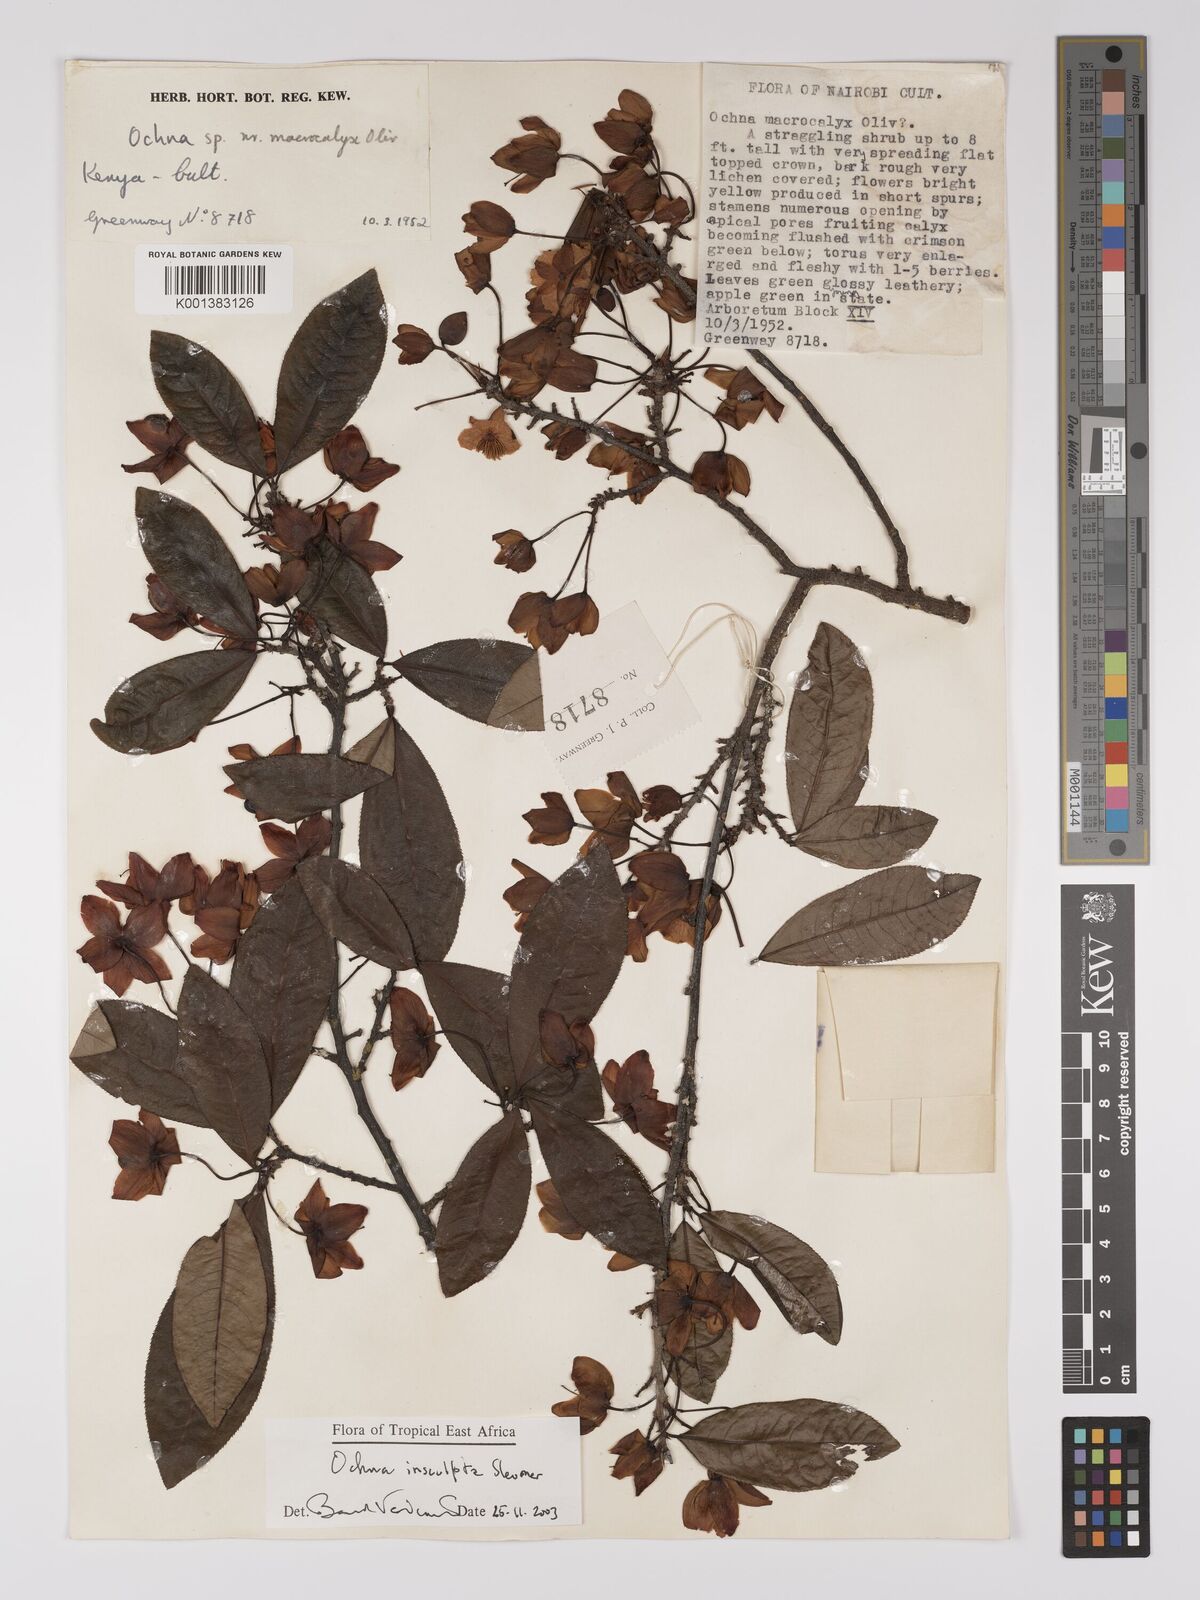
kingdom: Plantae
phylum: Tracheophyta
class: Magnoliopsida
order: Malpighiales
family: Ochnaceae
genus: Ochna
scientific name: Ochna insculpta
